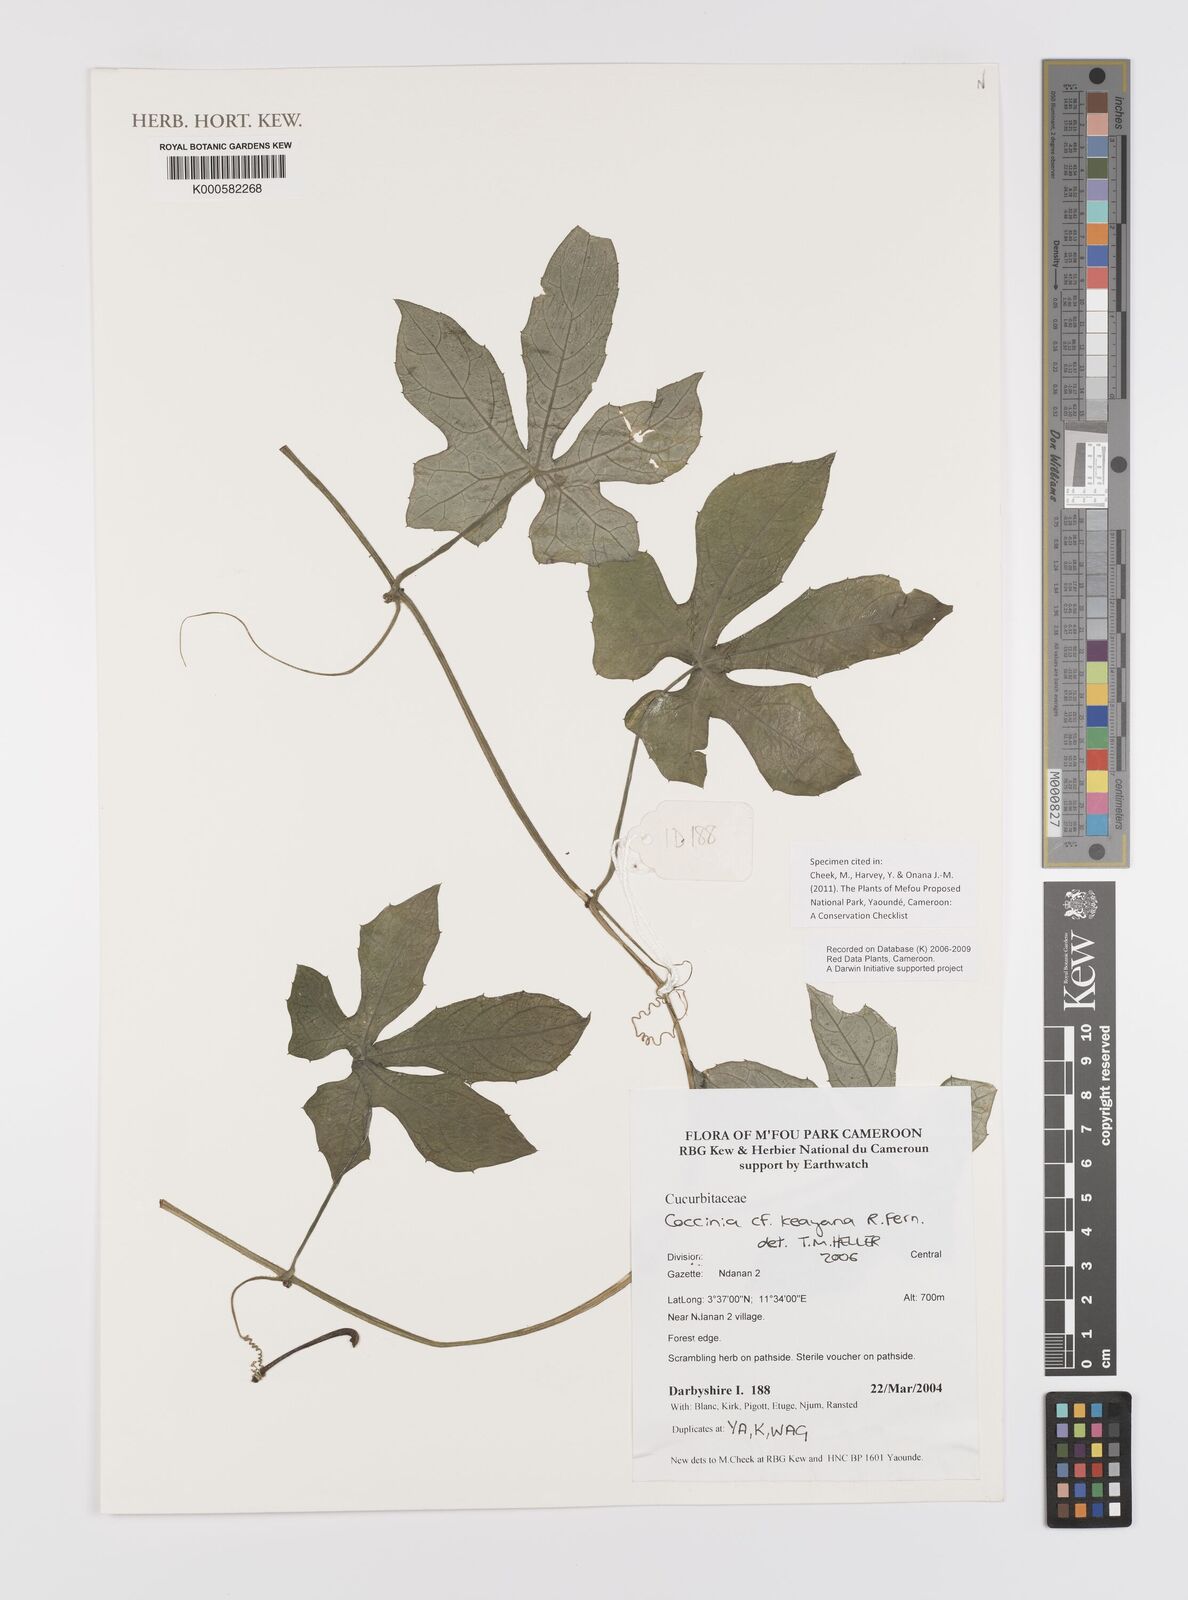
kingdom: Plantae
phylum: Tracheophyta
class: Magnoliopsida
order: Cucurbitales
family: Cucurbitaceae
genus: Coccinia
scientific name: Coccinia keayana
